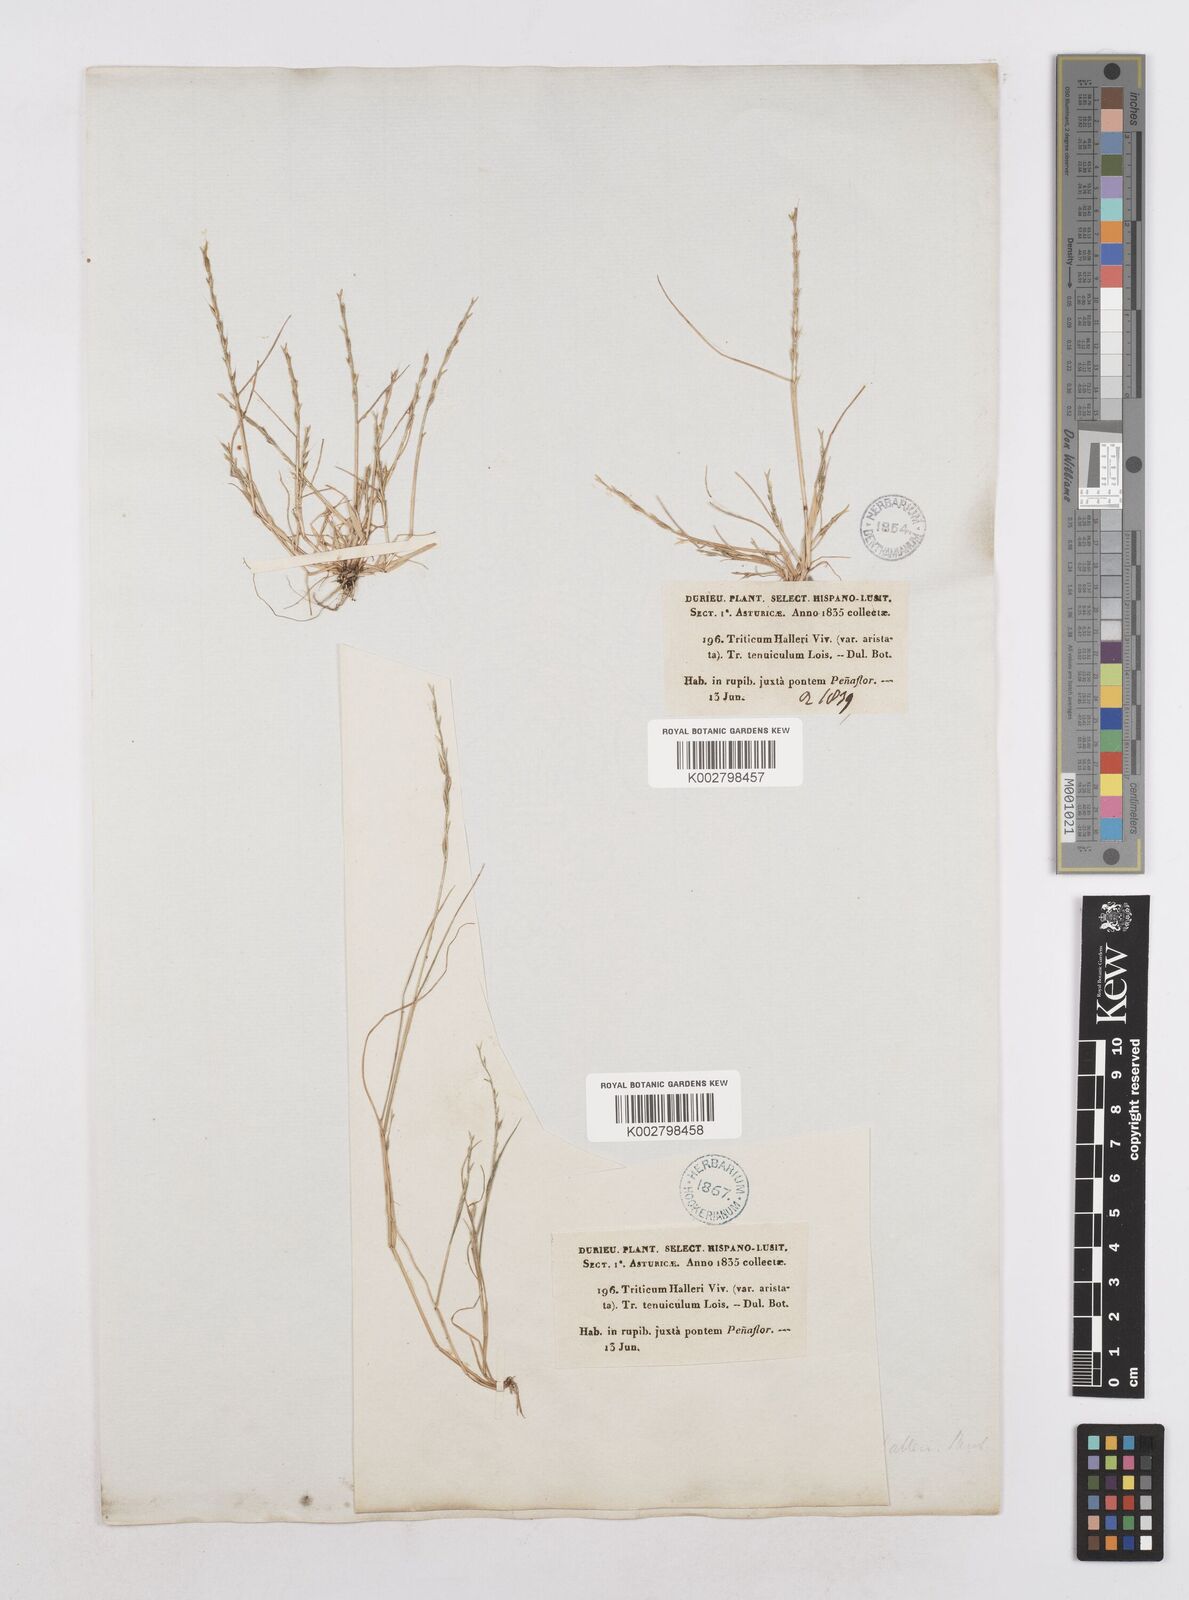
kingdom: Plantae
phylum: Tracheophyta
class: Liliopsida
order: Poales
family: Poaceae
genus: Festuca
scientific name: Festuca lachenalii
